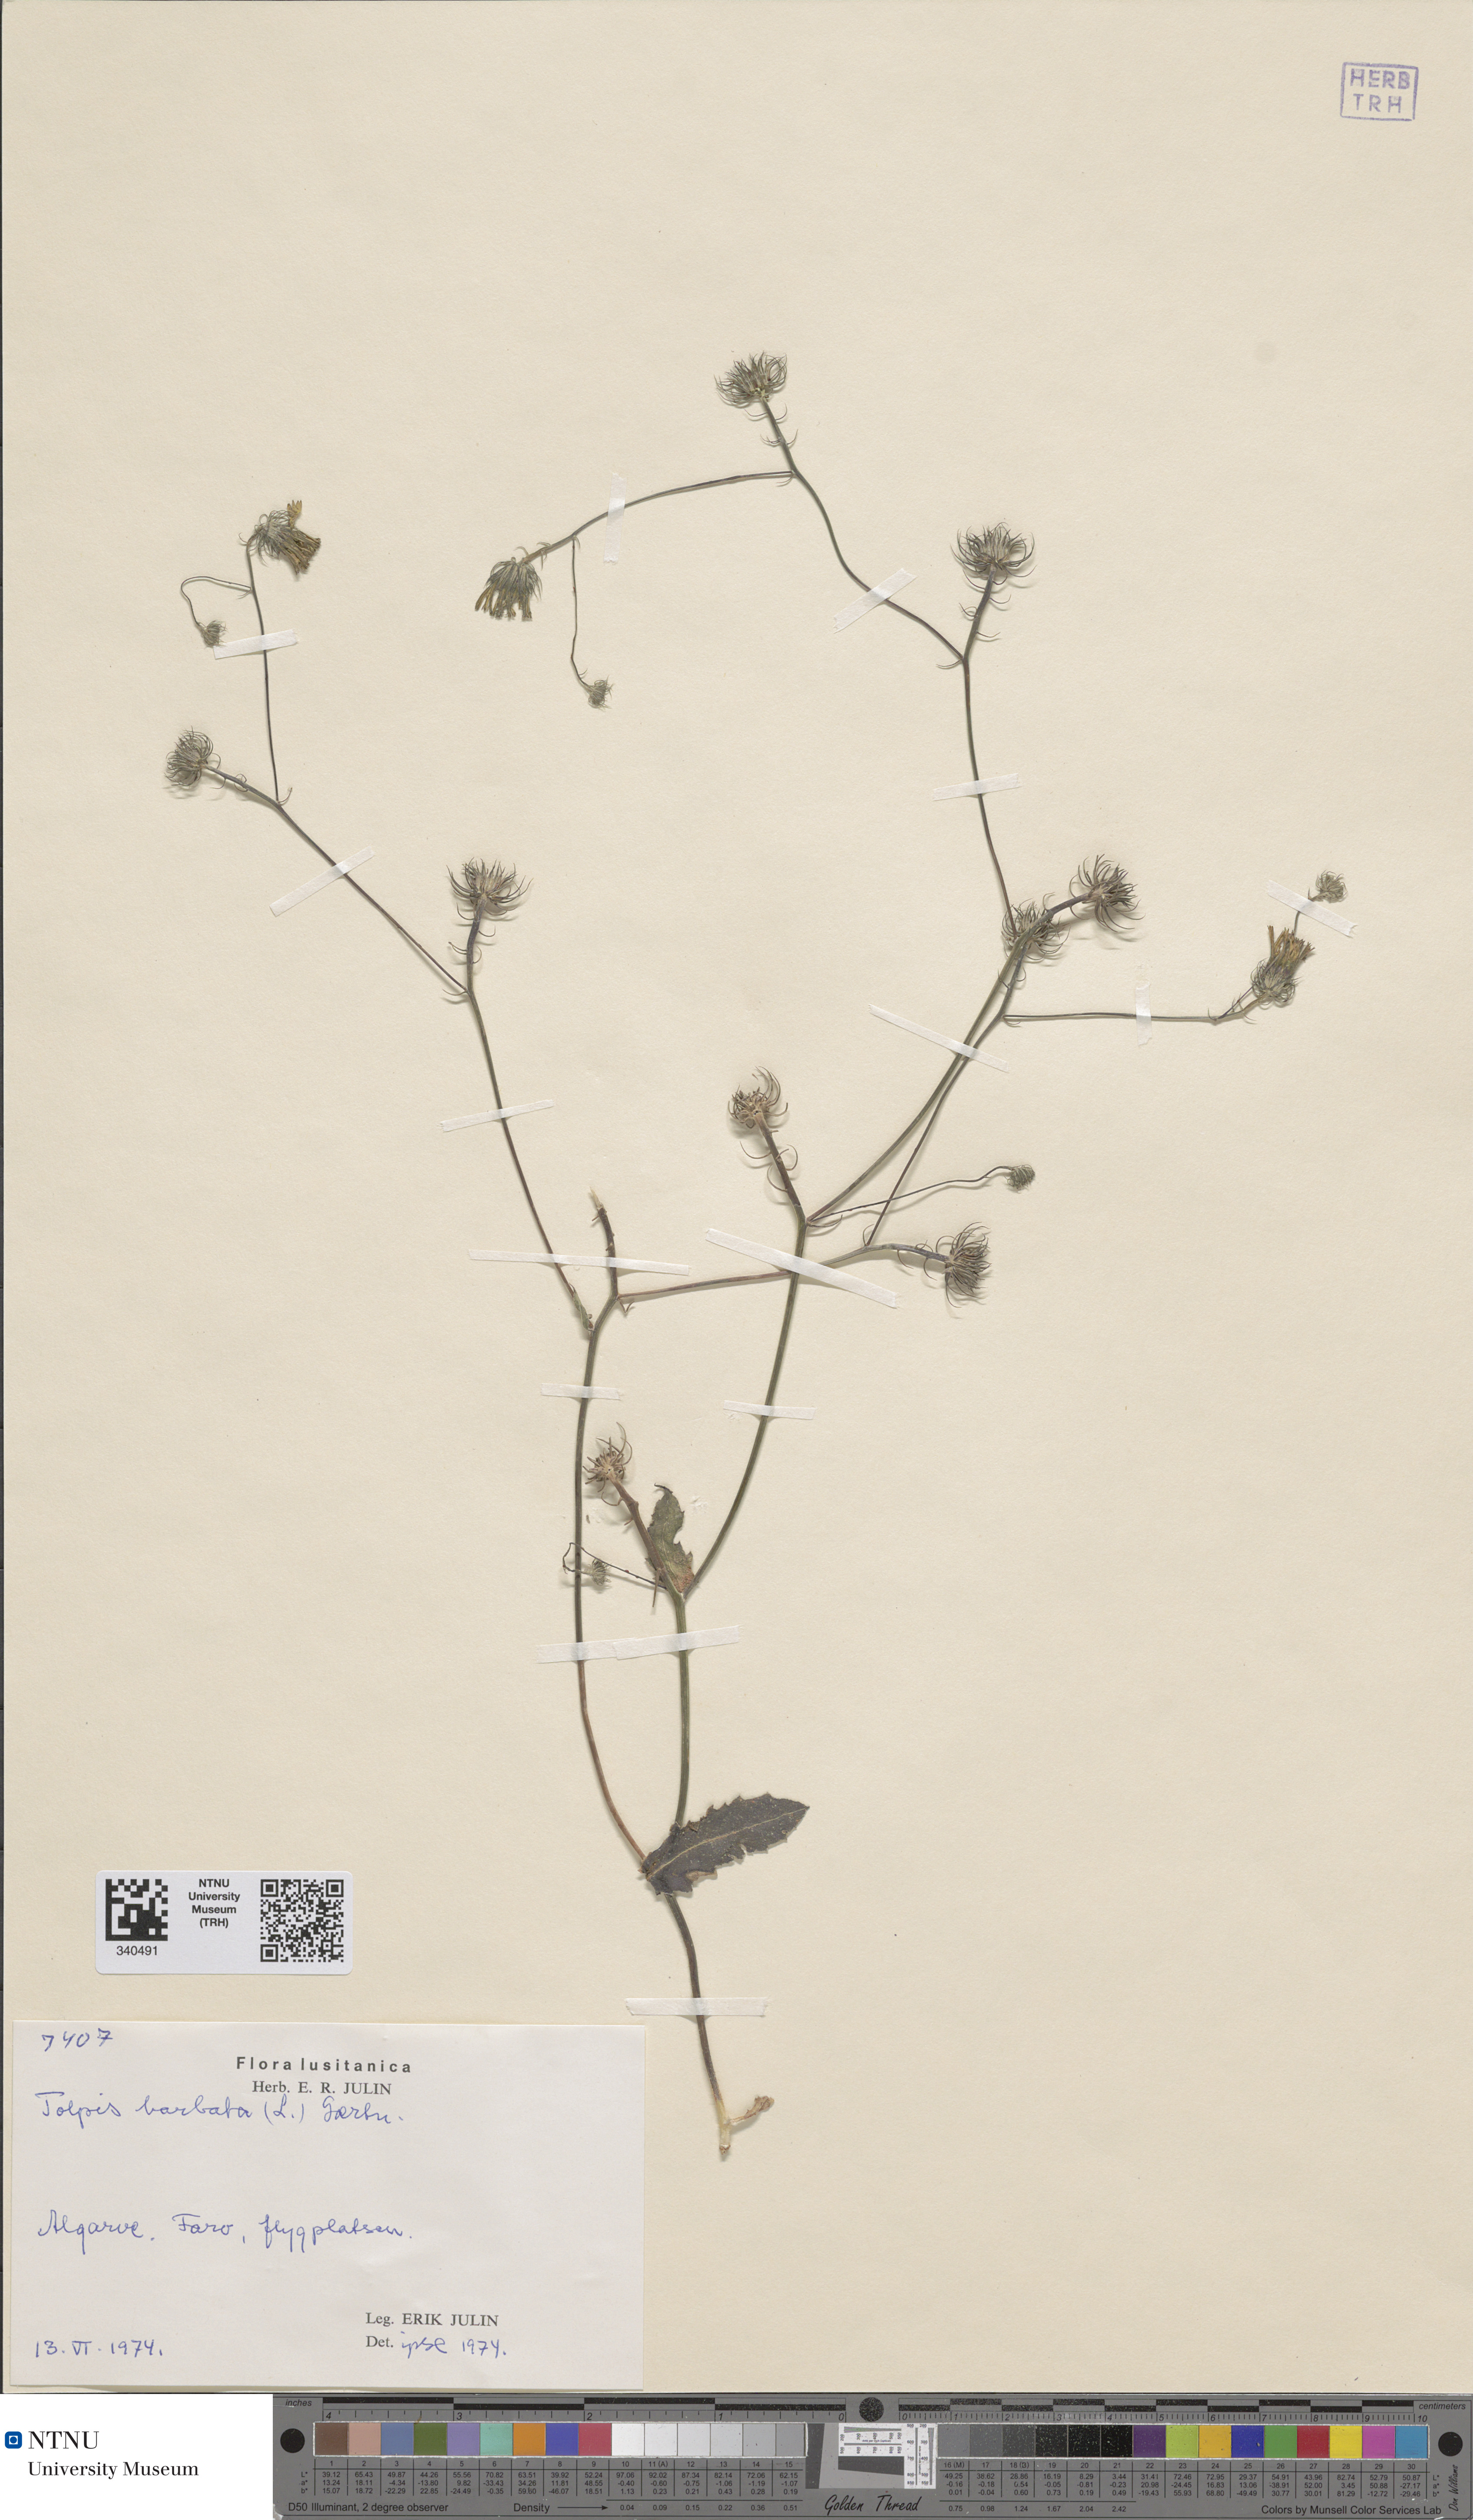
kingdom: Plantae
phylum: Tracheophyta
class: Magnoliopsida
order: Asterales
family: Asteraceae
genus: Tolpis
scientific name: Tolpis barbata
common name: Yellow hawkweed
